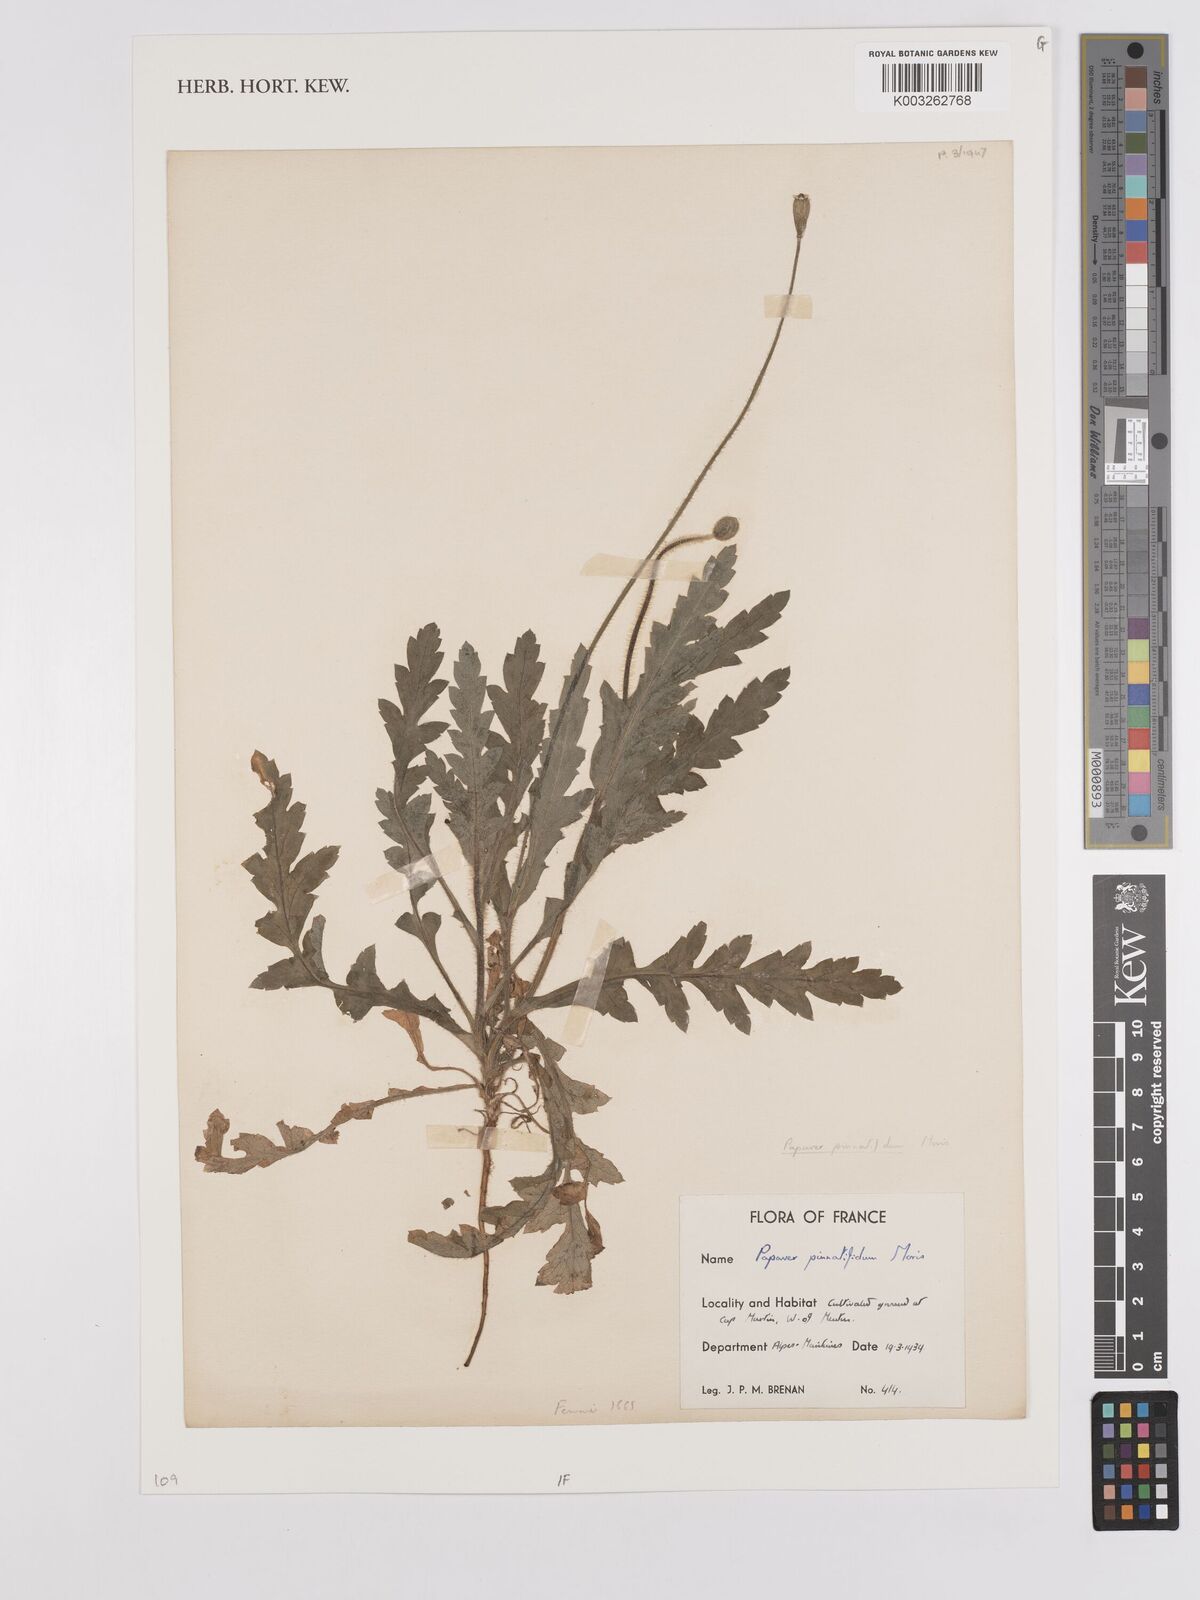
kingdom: Plantae
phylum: Tracheophyta
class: Magnoliopsida
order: Ranunculales
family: Papaveraceae
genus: Papaver
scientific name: Papaver pinnatifidum
